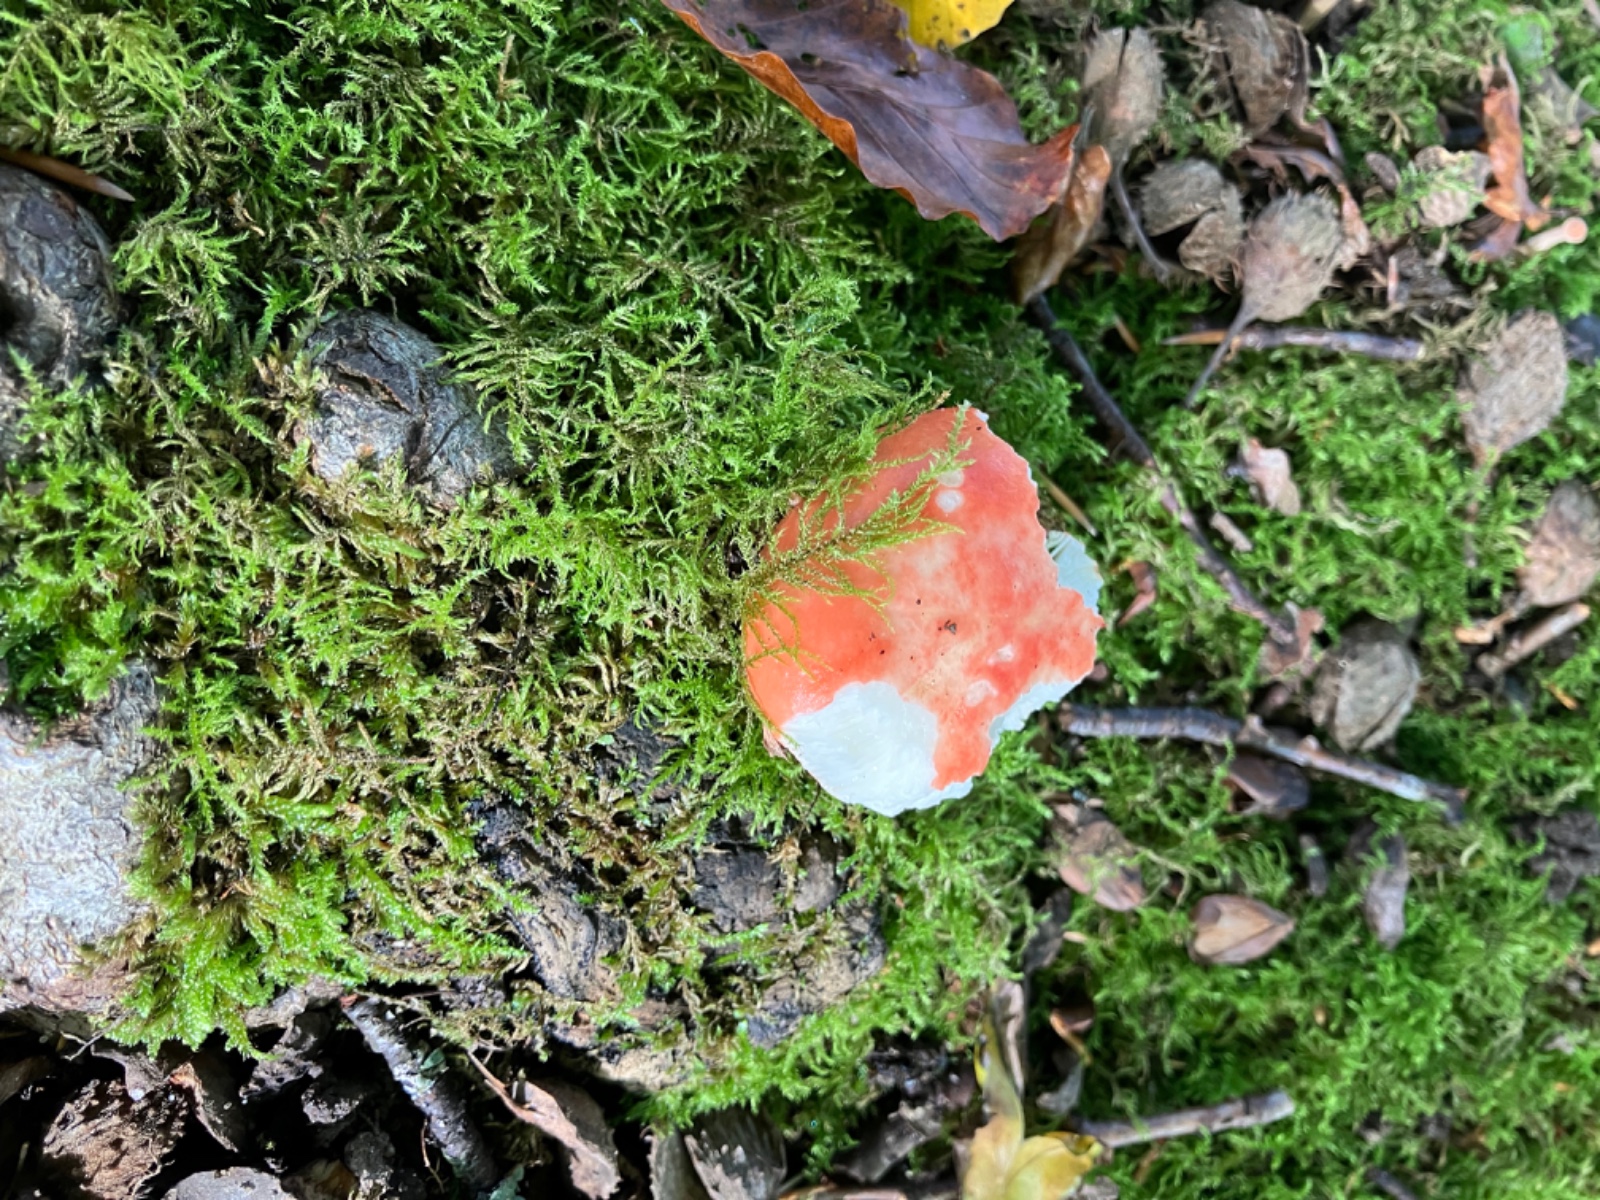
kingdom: Fungi
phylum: Basidiomycota
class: Agaricomycetes
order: Russulales
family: Russulaceae
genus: Russula
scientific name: Russula
